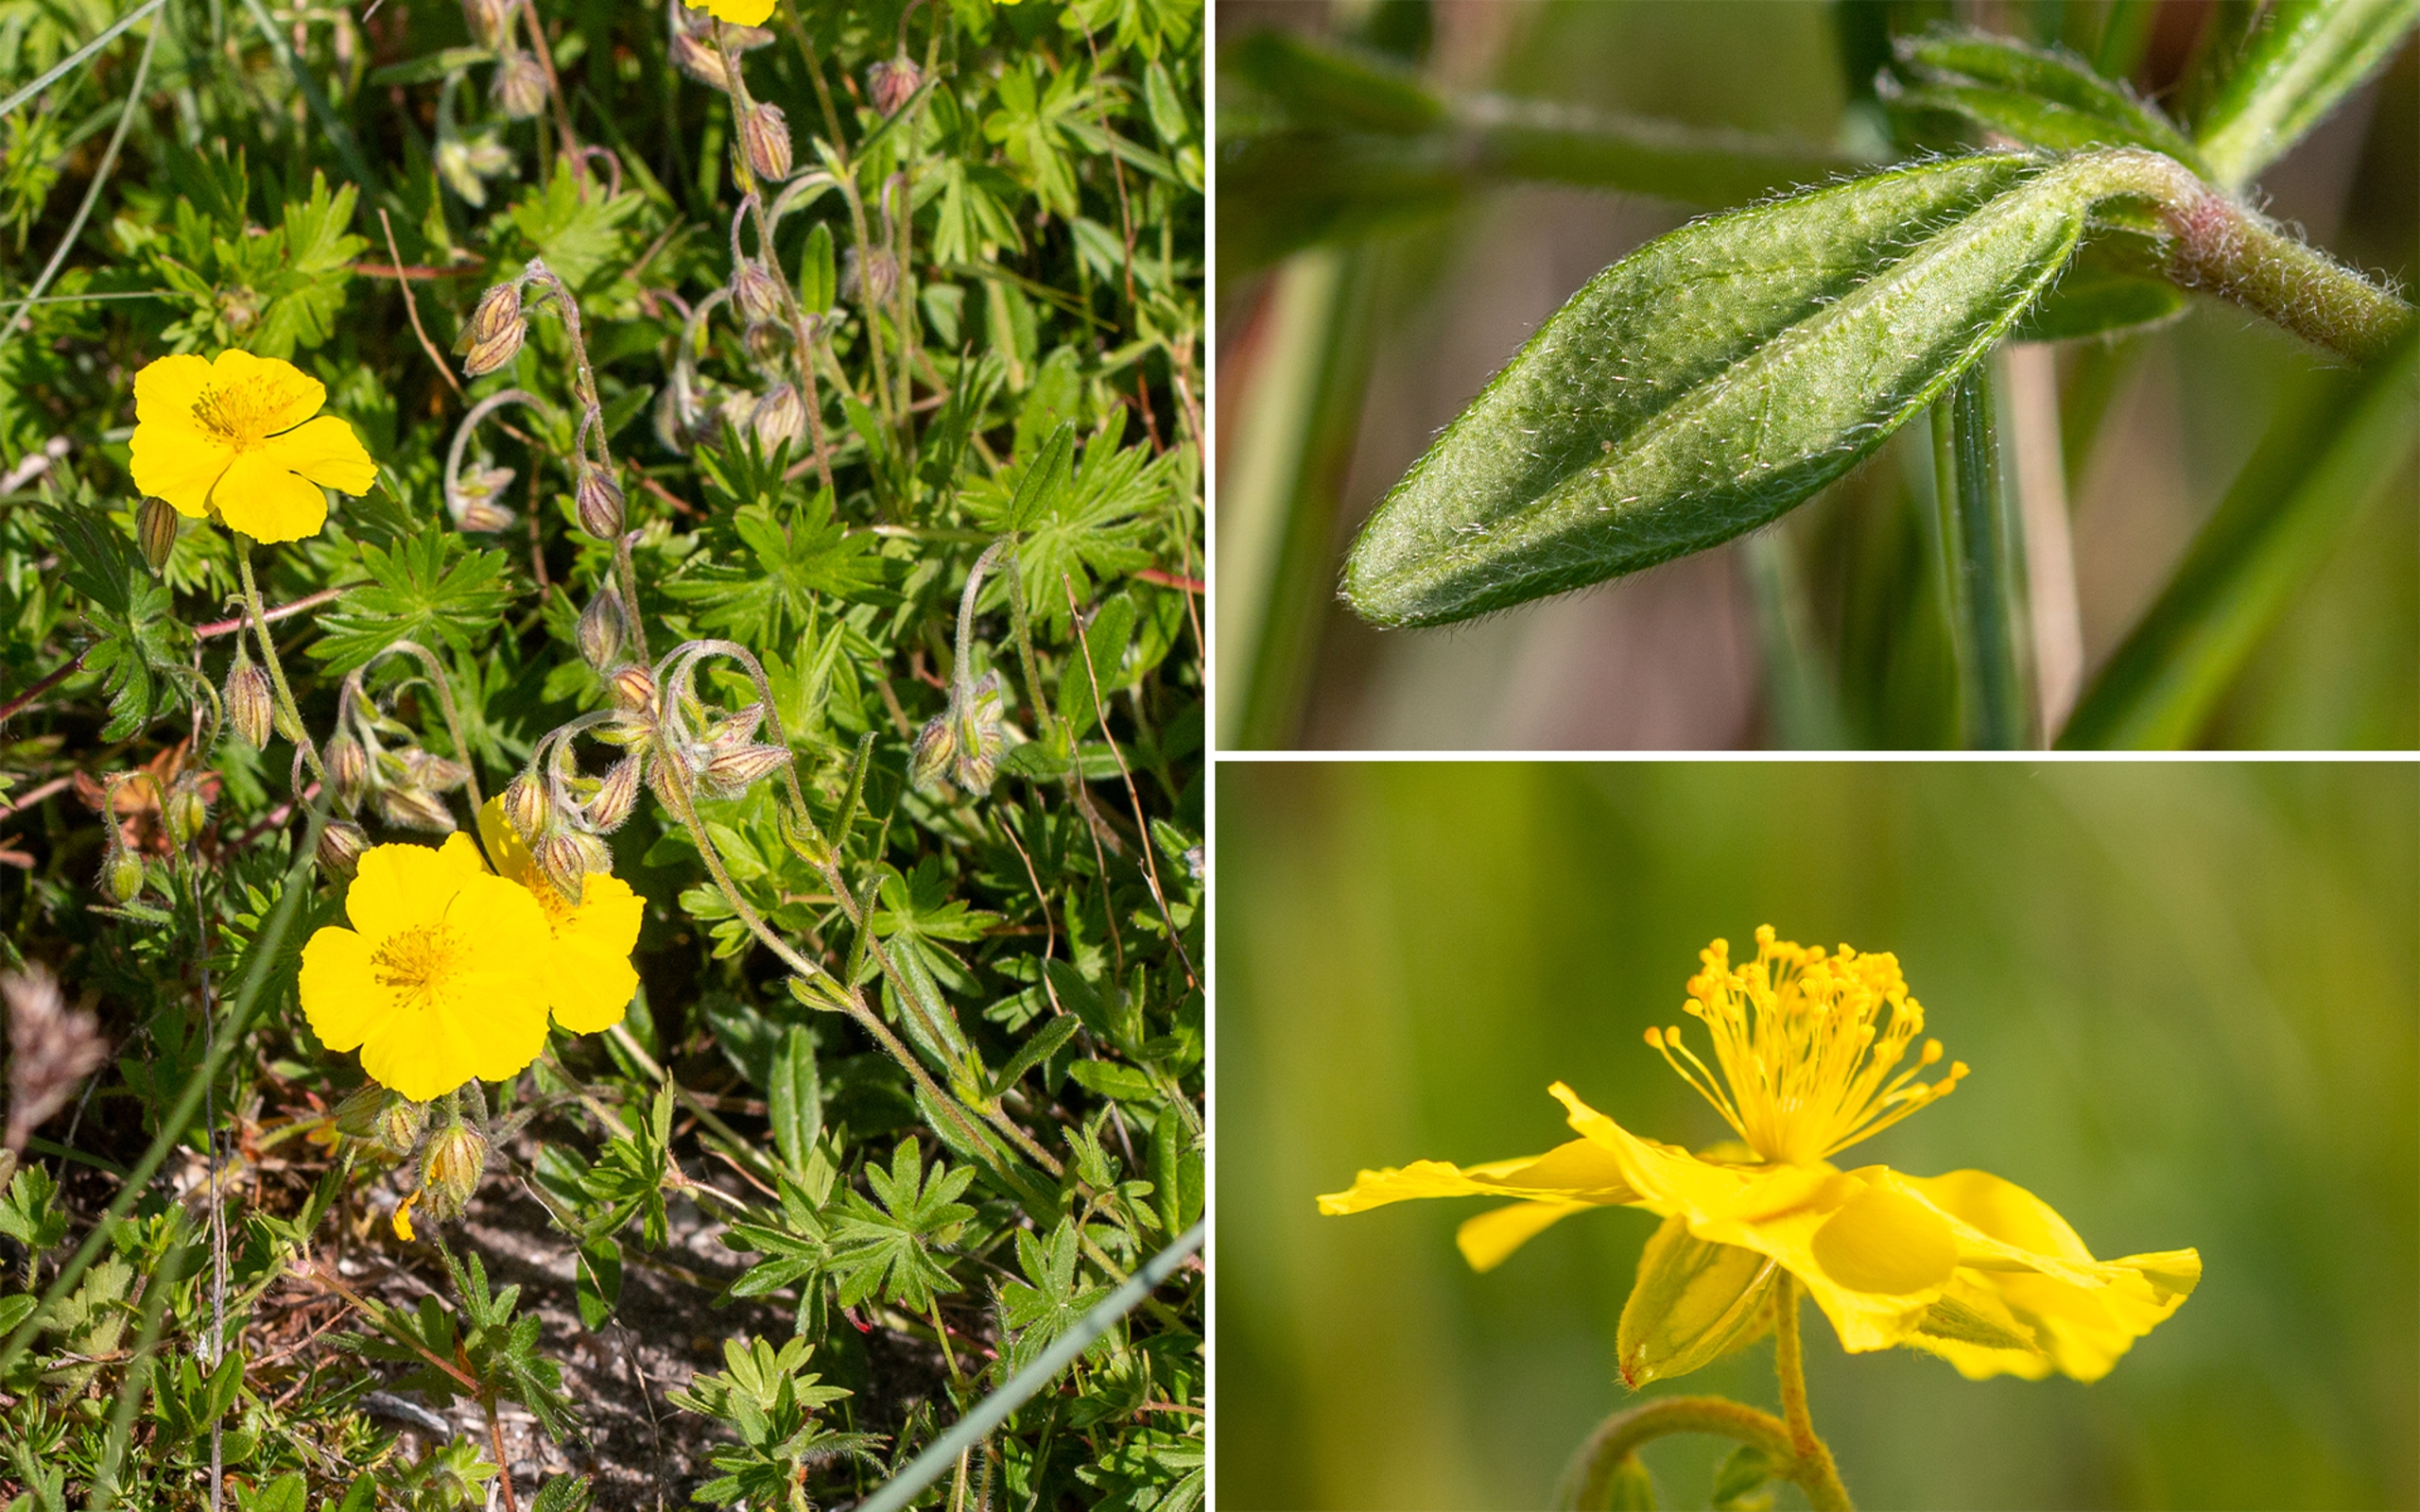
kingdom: Plantae
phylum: Tracheophyta
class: Magnoliopsida
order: Malvales
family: Cistaceae
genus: Helianthemum
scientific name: Helianthemum nummularium
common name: Bakke-soløje
